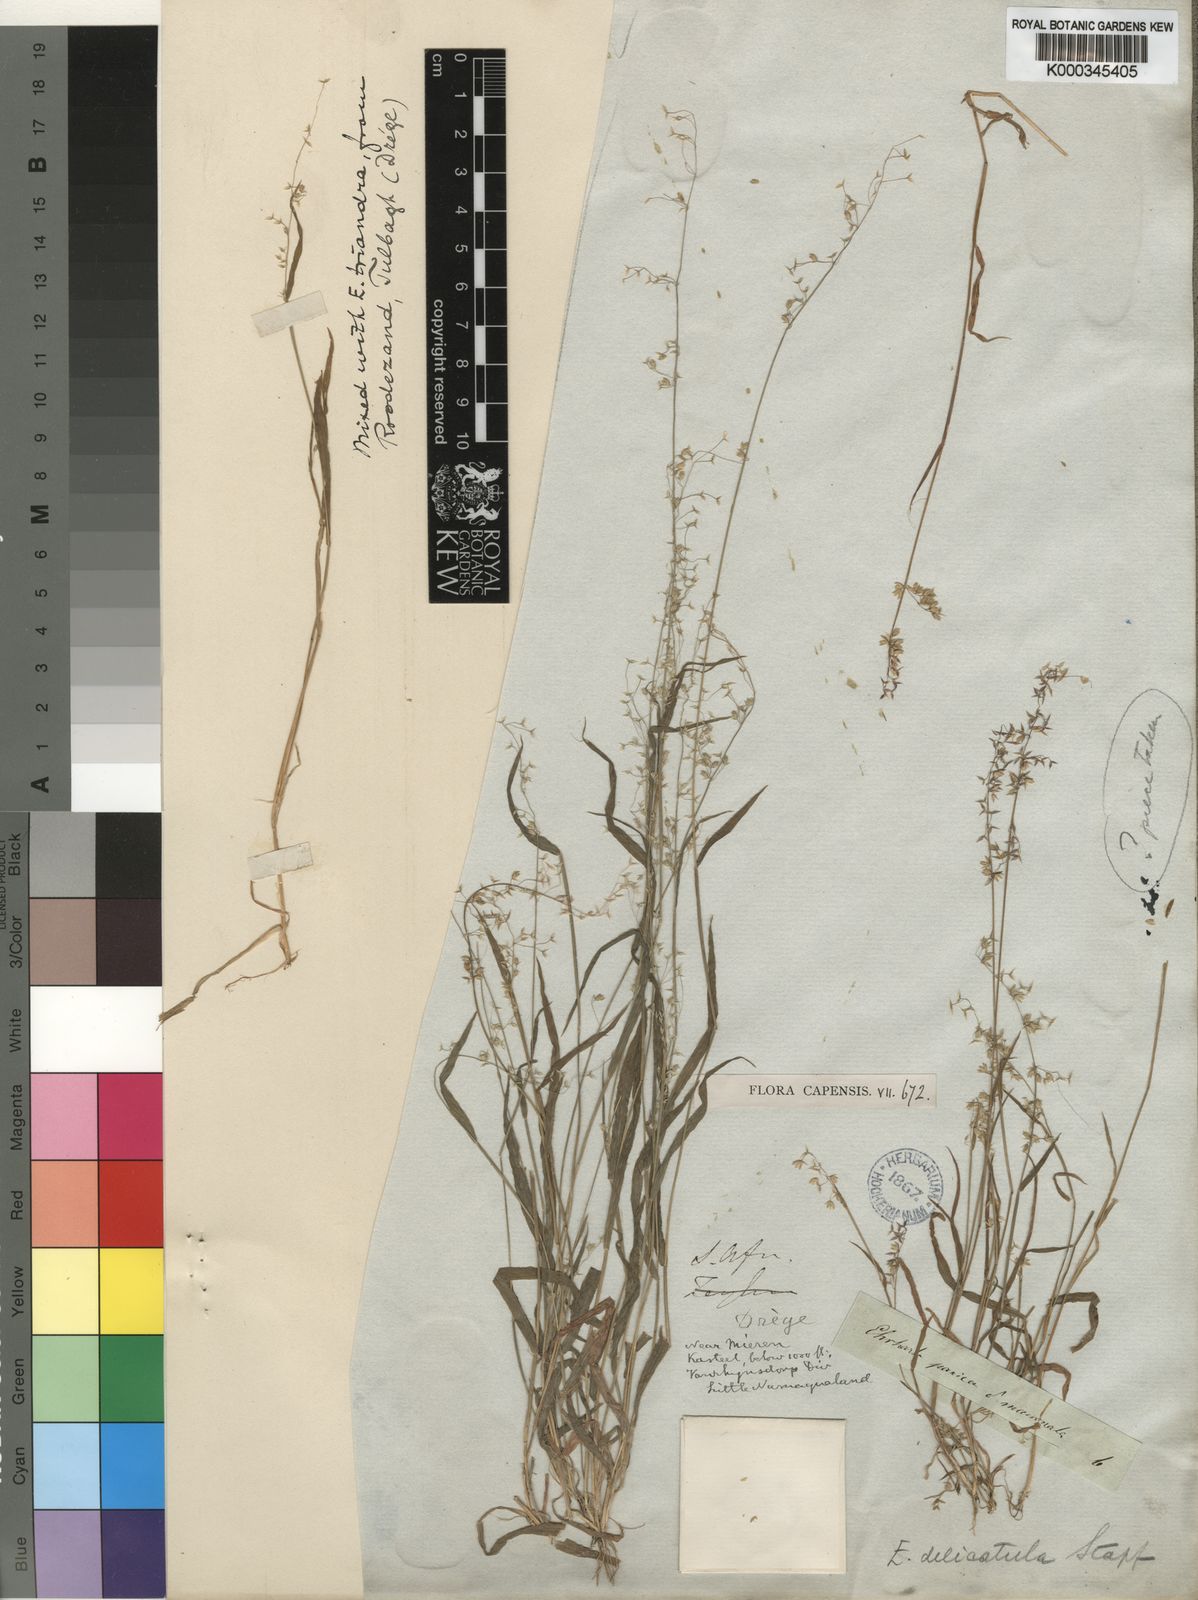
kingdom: Plantae
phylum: Tracheophyta
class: Liliopsida
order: Poales
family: Poaceae
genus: Ehrharta
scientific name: Ehrharta delicatula
